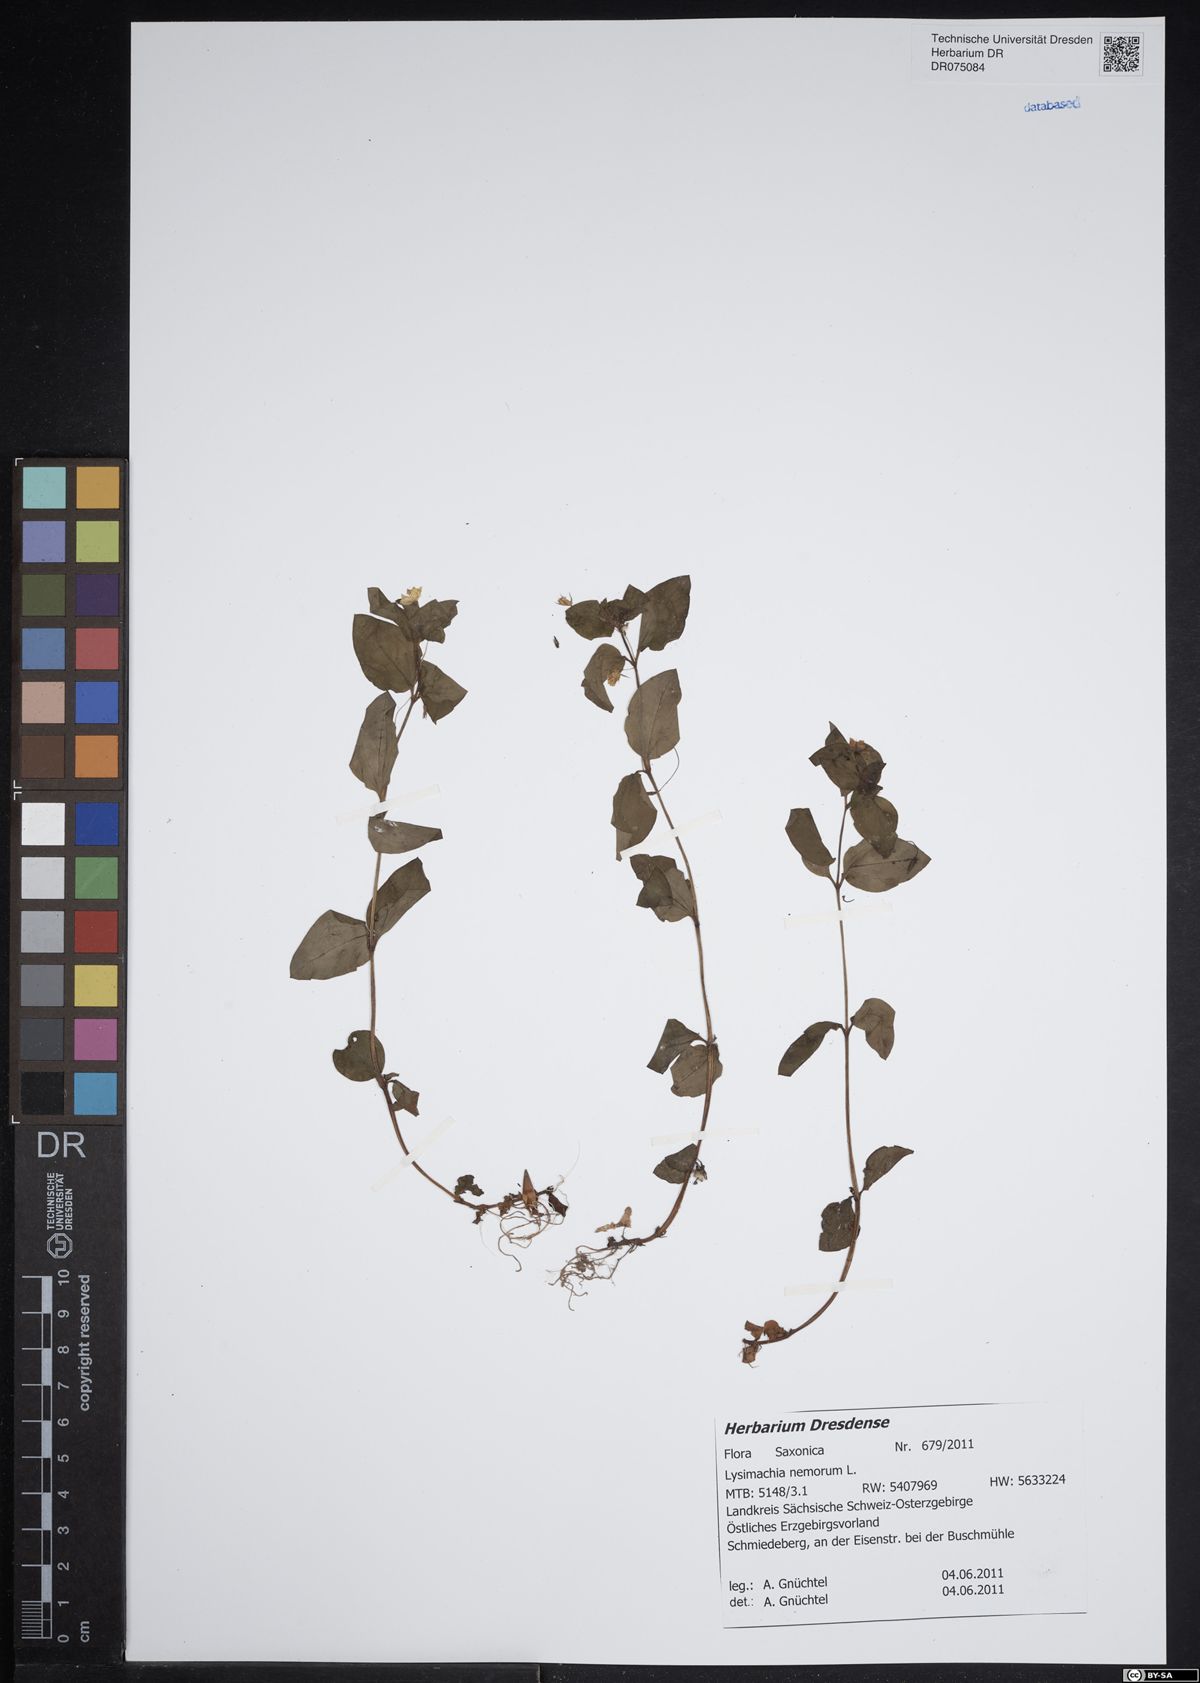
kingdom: Plantae
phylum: Tracheophyta
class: Magnoliopsida
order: Ericales
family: Primulaceae
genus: Lysimachia
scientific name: Lysimachia nemorum
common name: Yellow pimpernel
